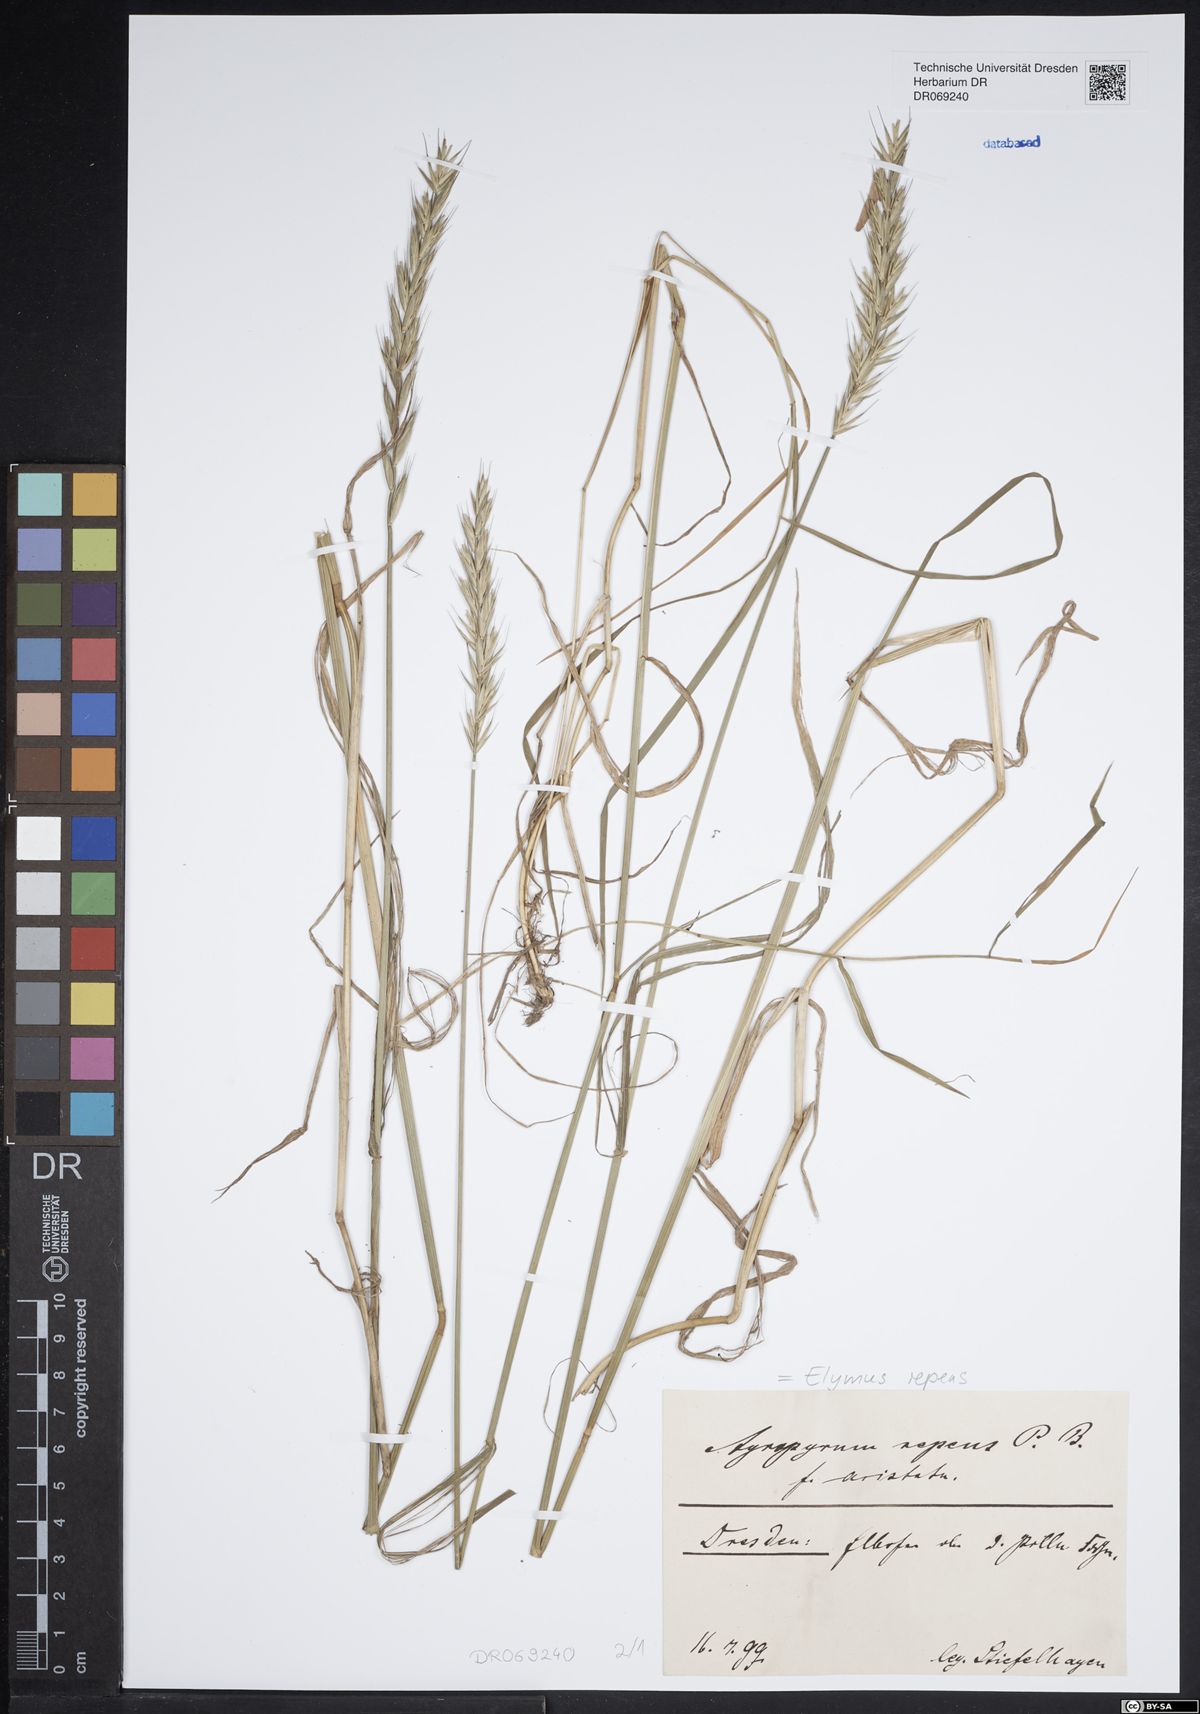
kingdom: Plantae
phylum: Tracheophyta
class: Liliopsida
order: Poales
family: Poaceae
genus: Elymus
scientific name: Elymus repens
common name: Quackgrass
